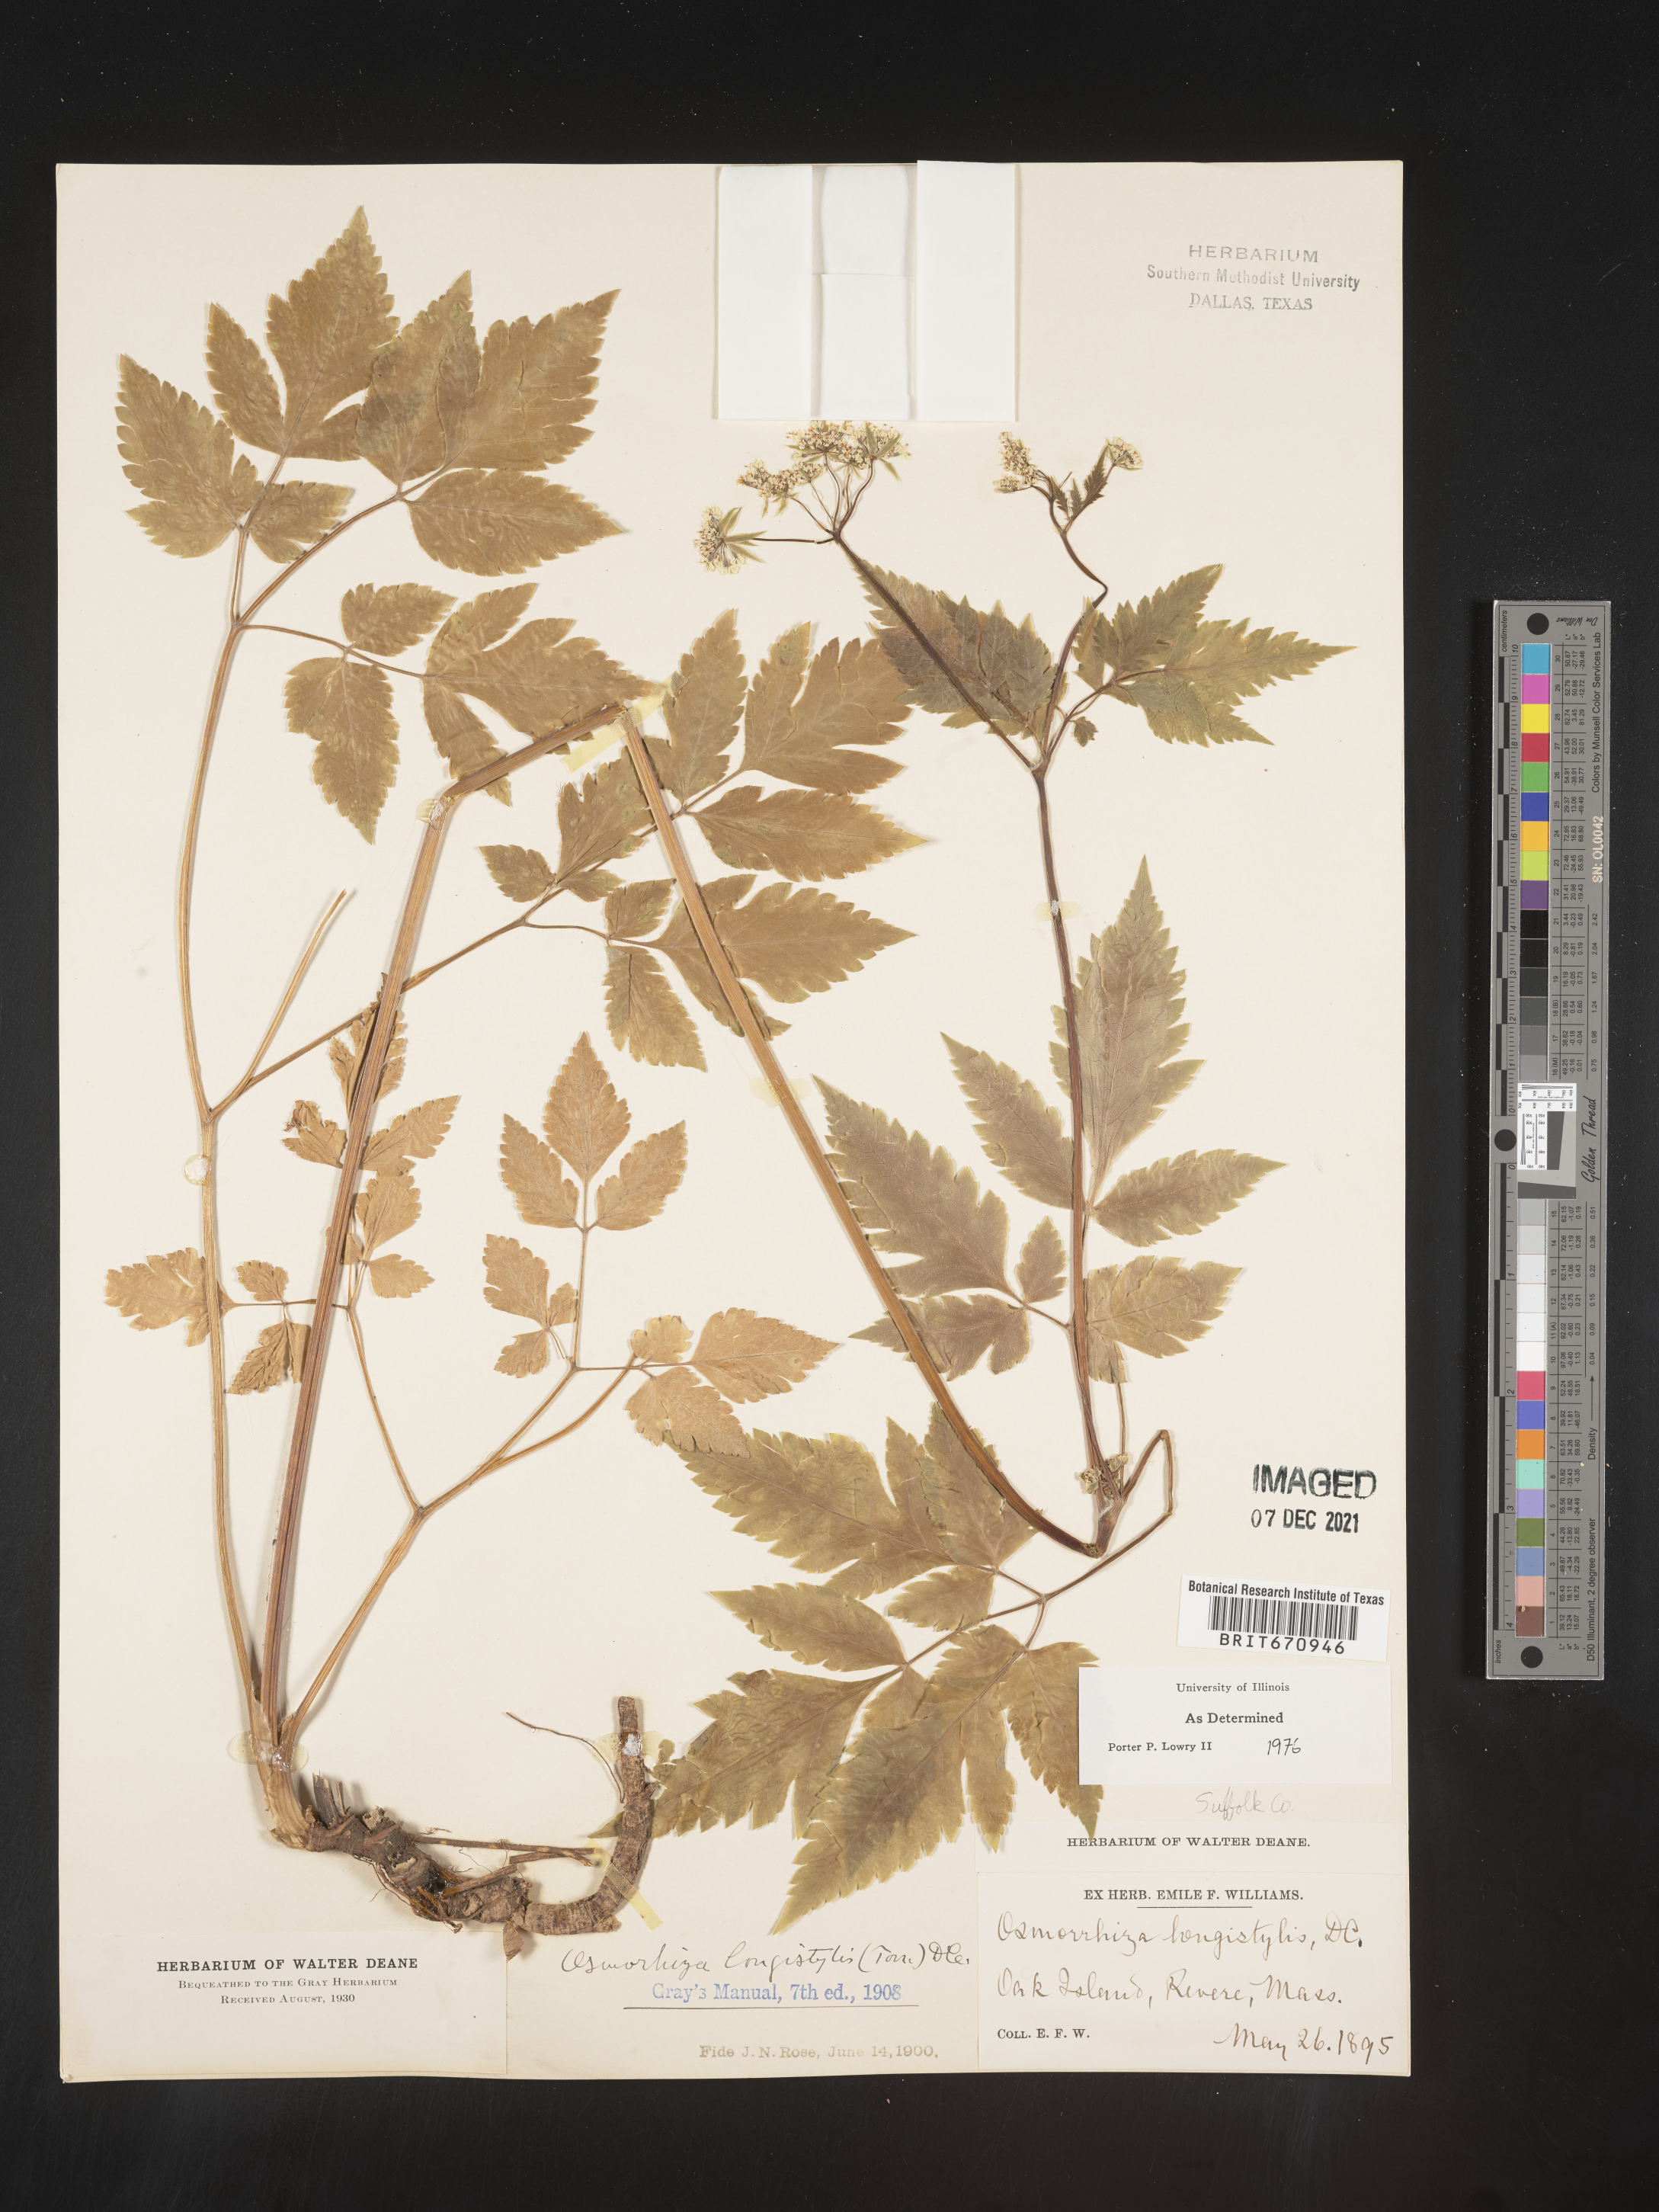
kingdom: Plantae
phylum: Tracheophyta
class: Magnoliopsida
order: Apiales
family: Apiaceae
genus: Osmorhiza
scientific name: Osmorhiza longistylis
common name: Smooth sweet cicely
